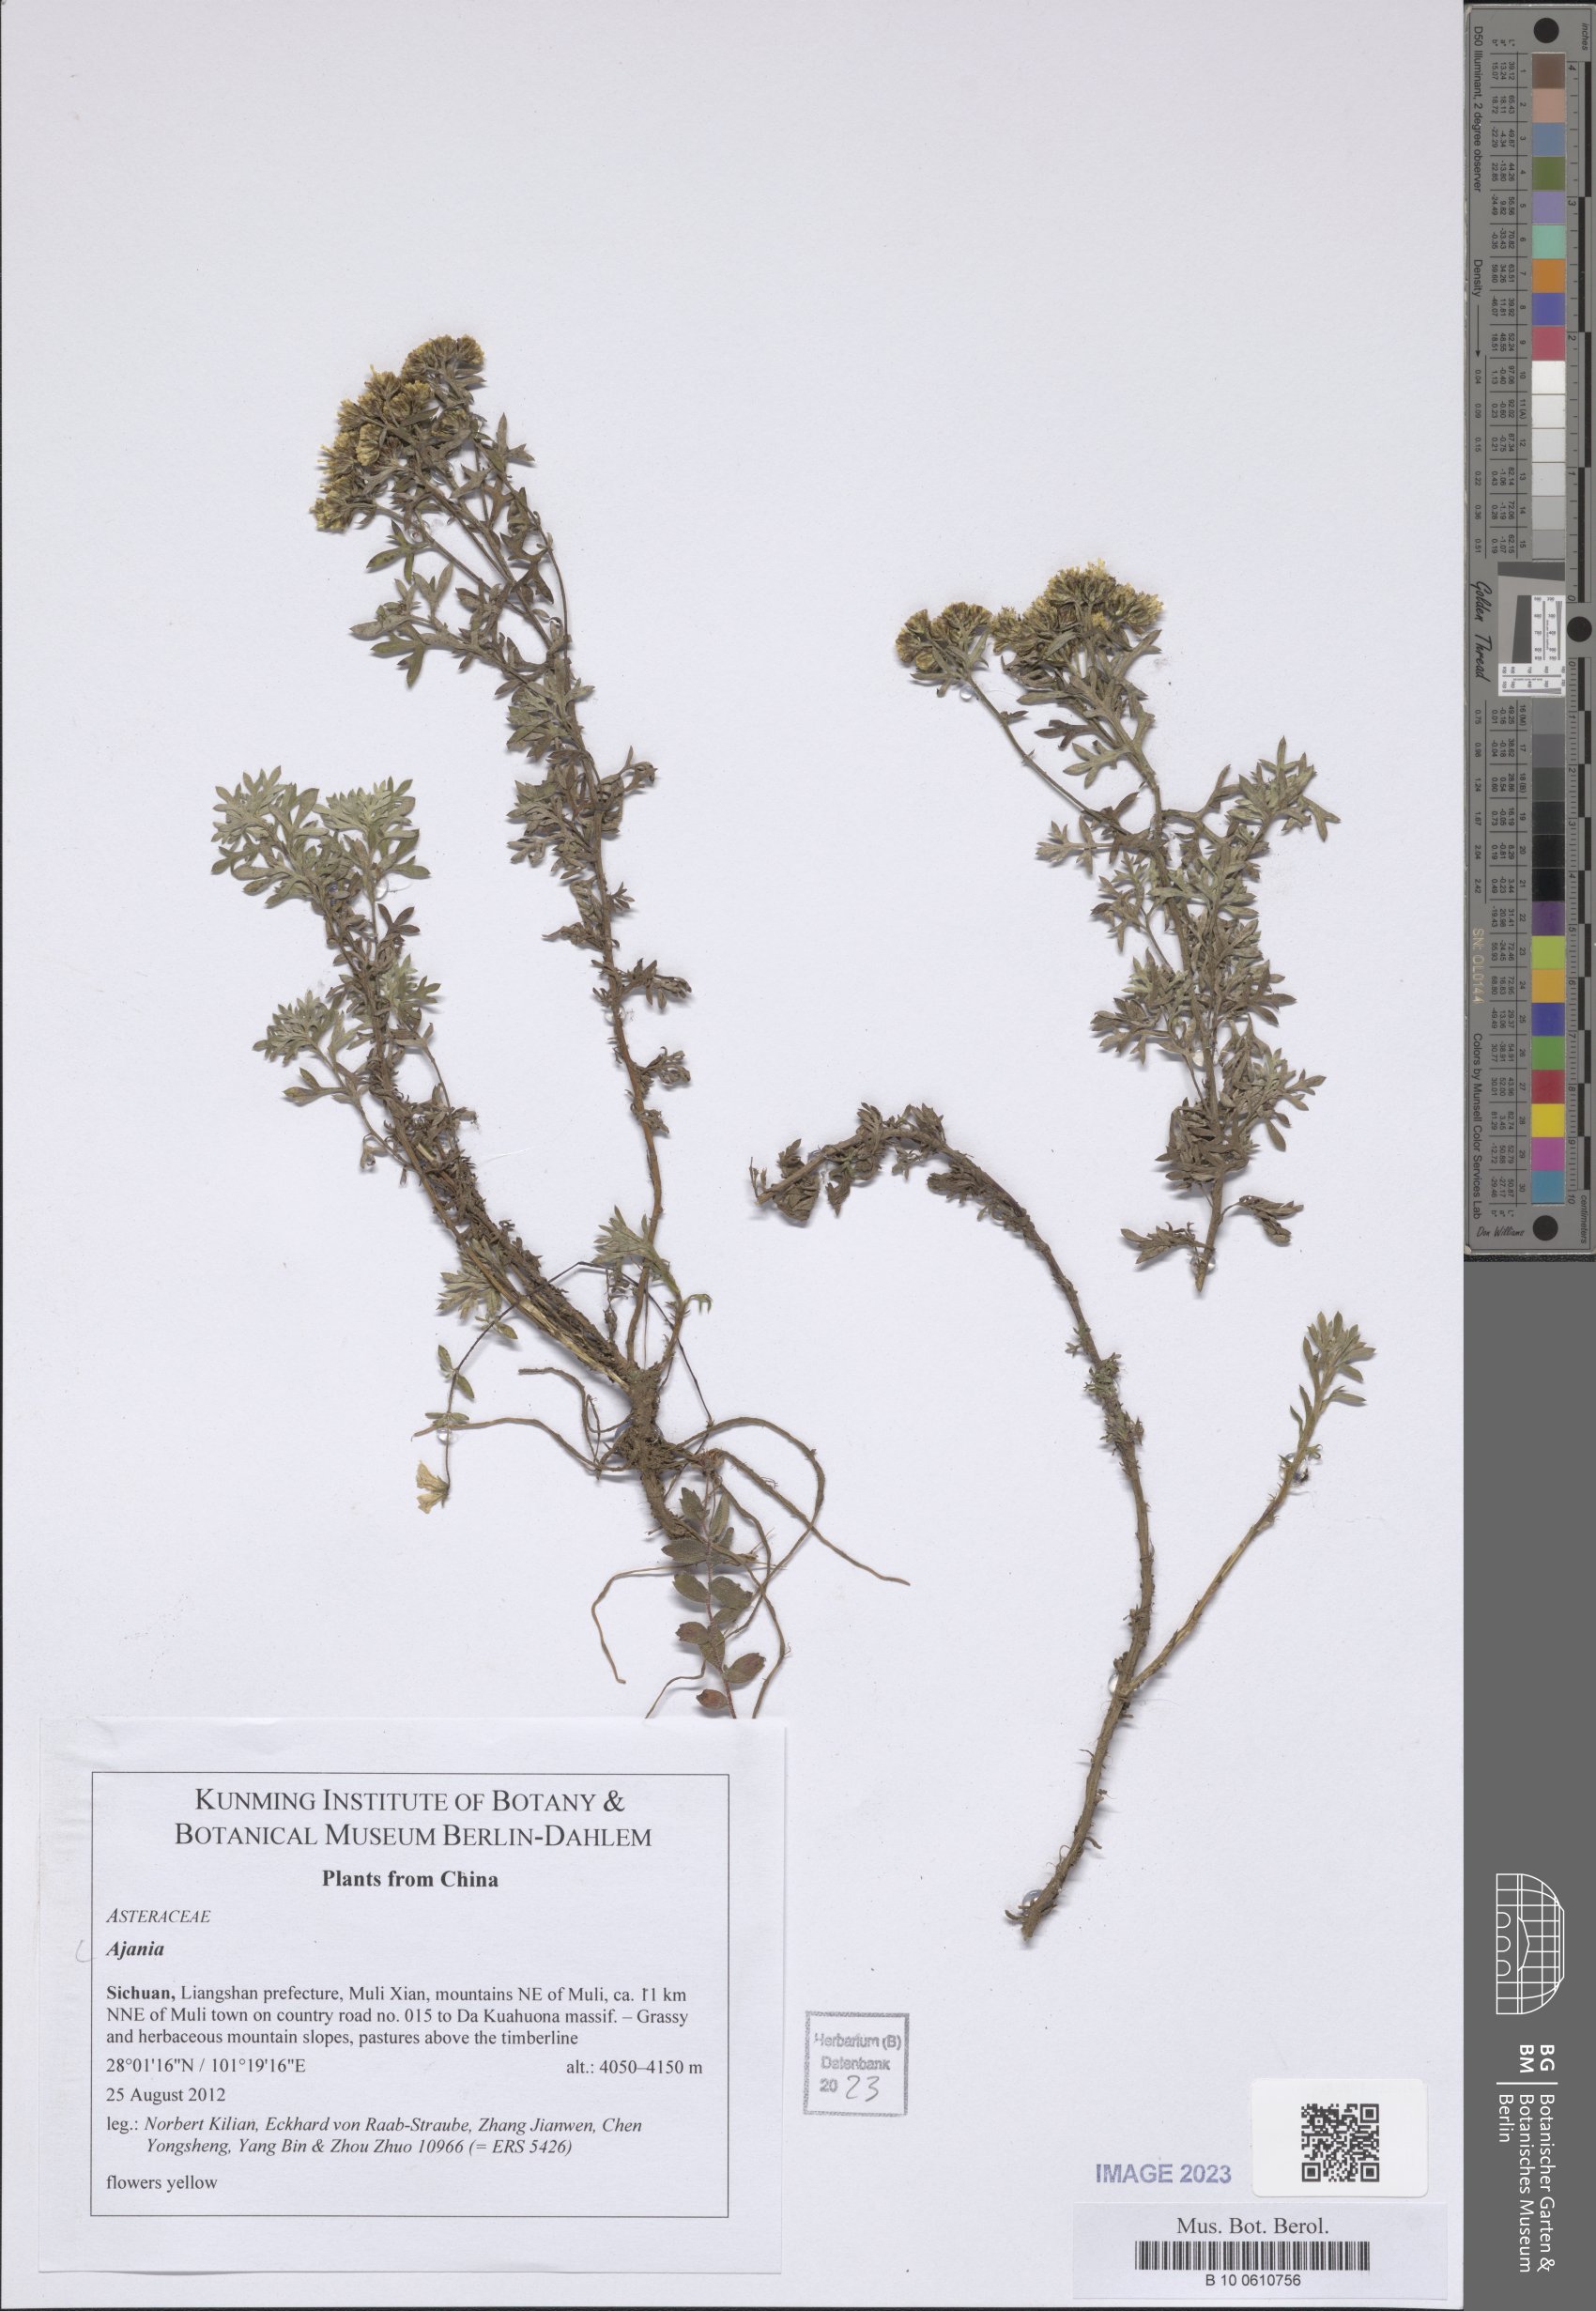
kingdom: Plantae
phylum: Tracheophyta
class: Magnoliopsida
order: Asterales
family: Asteraceae
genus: Ajania
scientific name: Ajania
